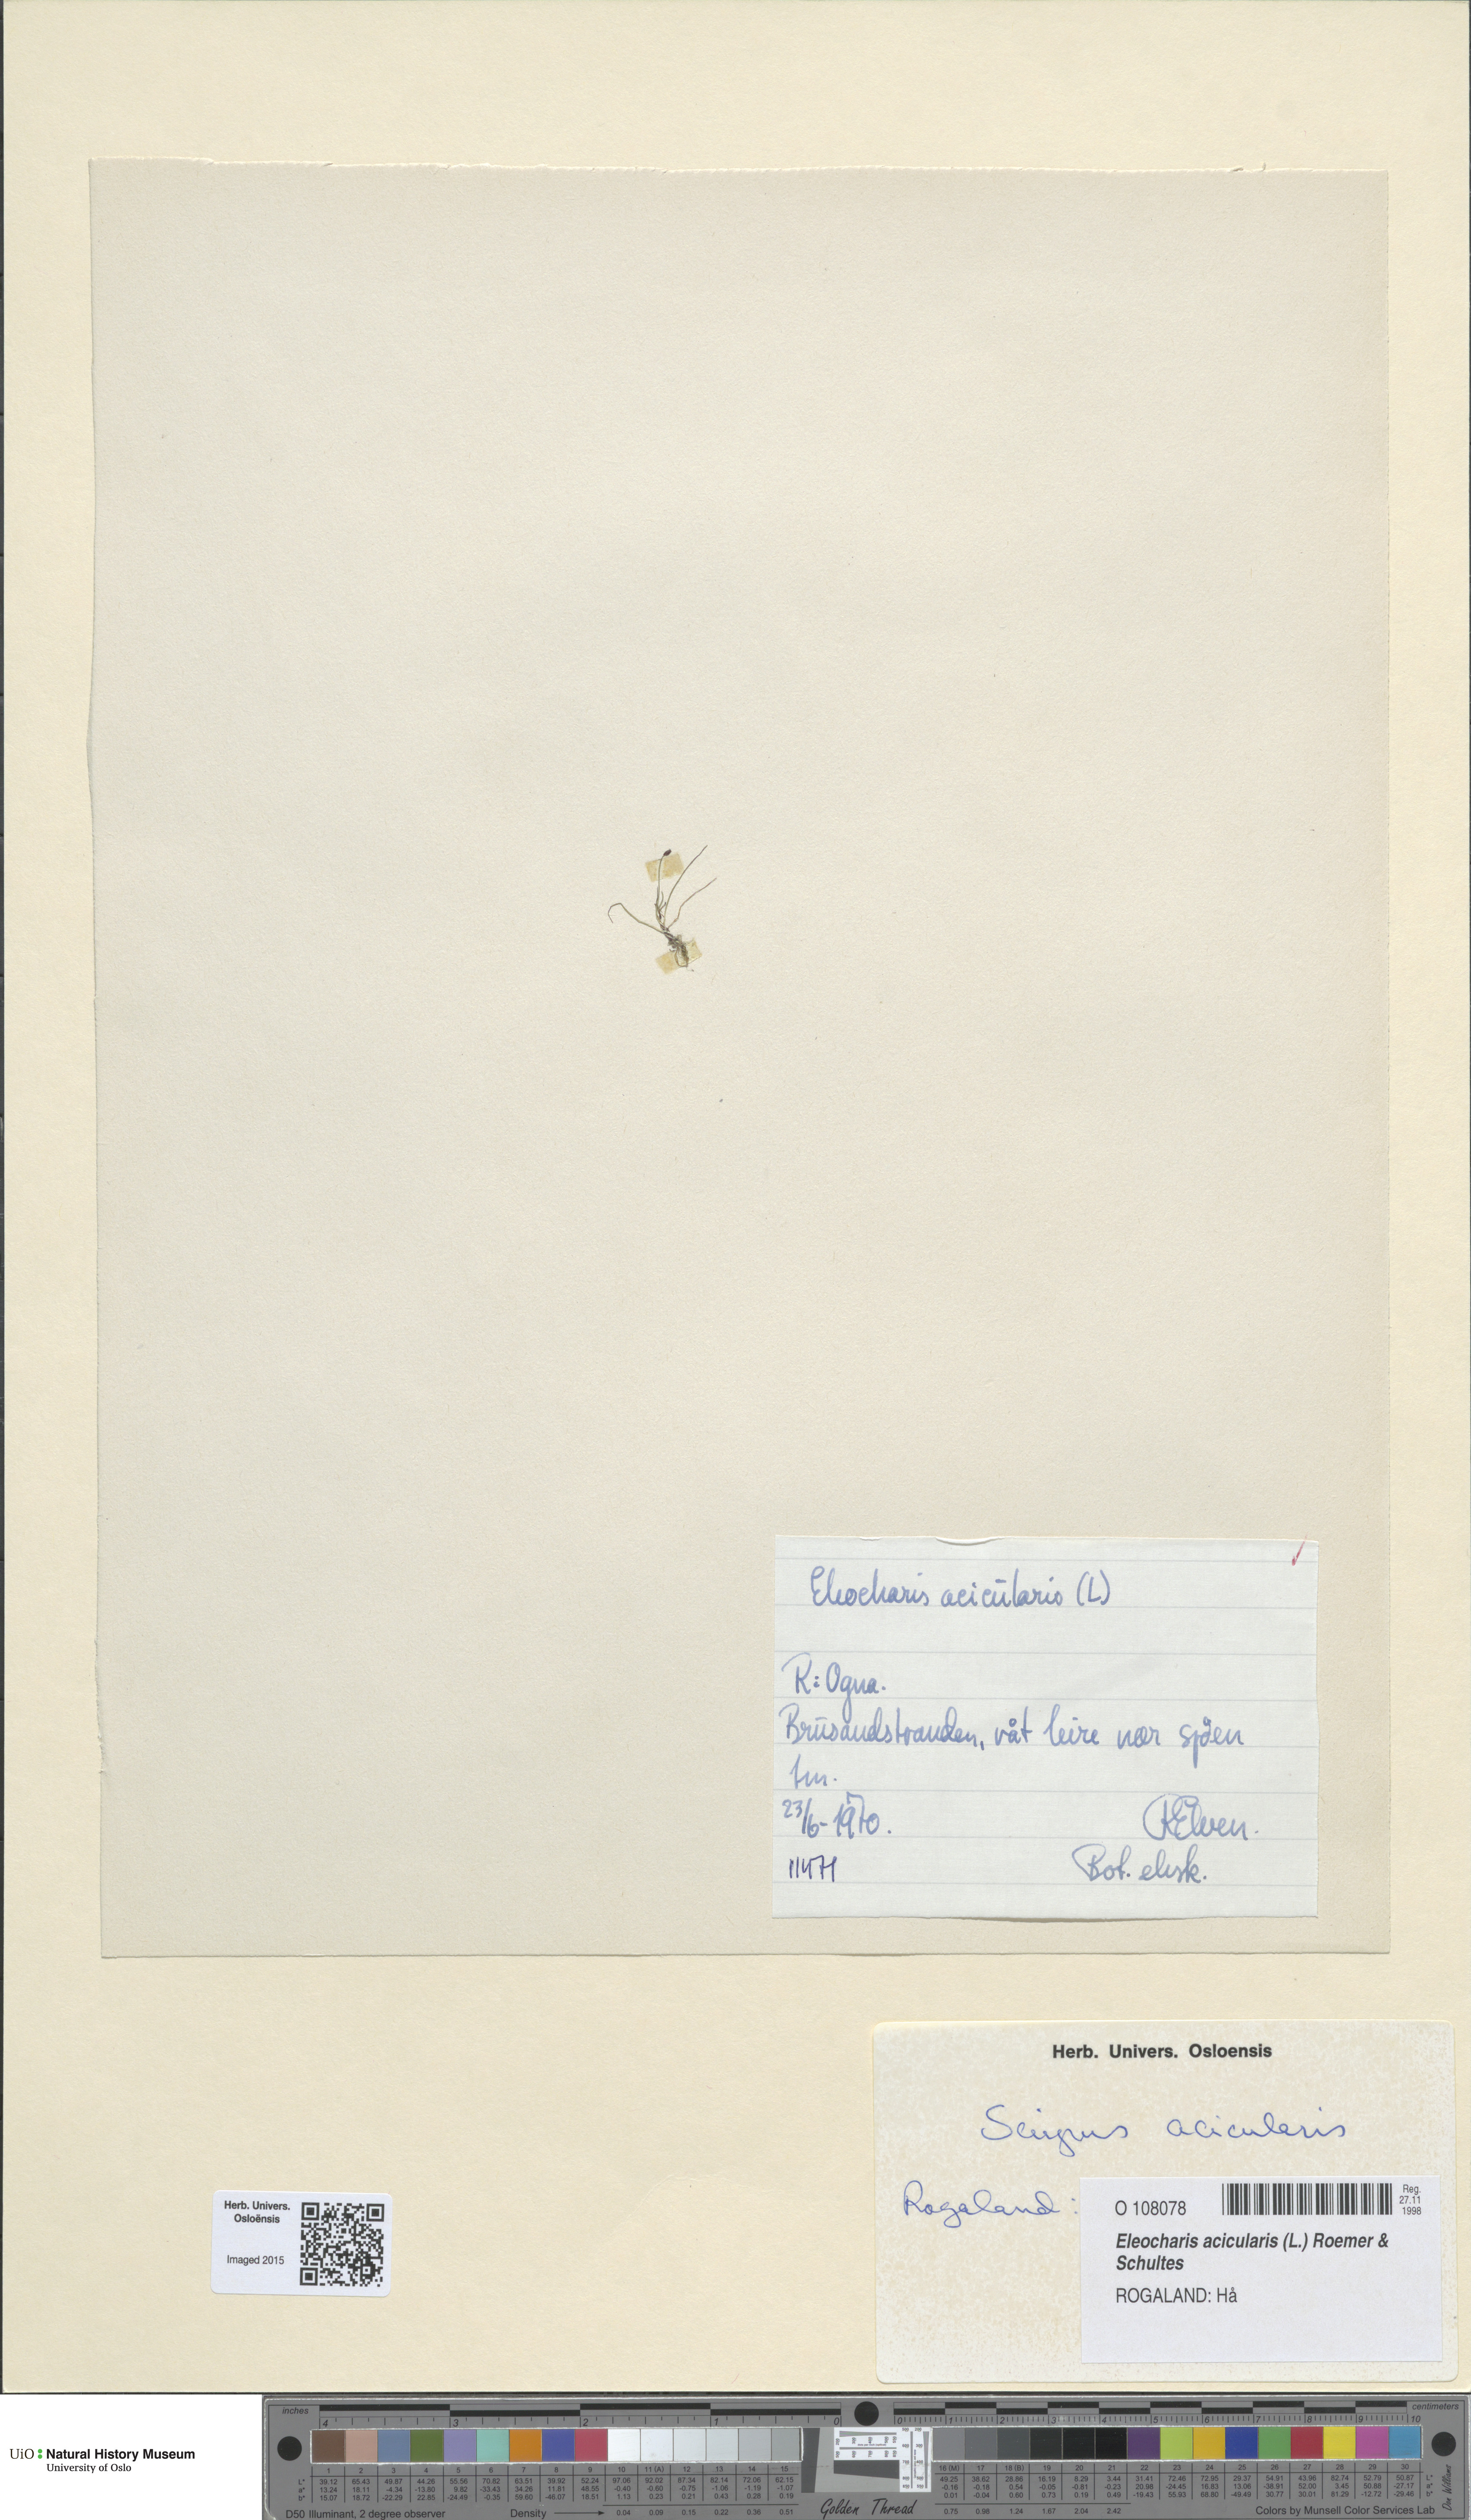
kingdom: Plantae
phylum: Tracheophyta
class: Liliopsida
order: Poales
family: Cyperaceae
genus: Eleocharis
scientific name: Eleocharis acicularis
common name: Needle spike-rush
